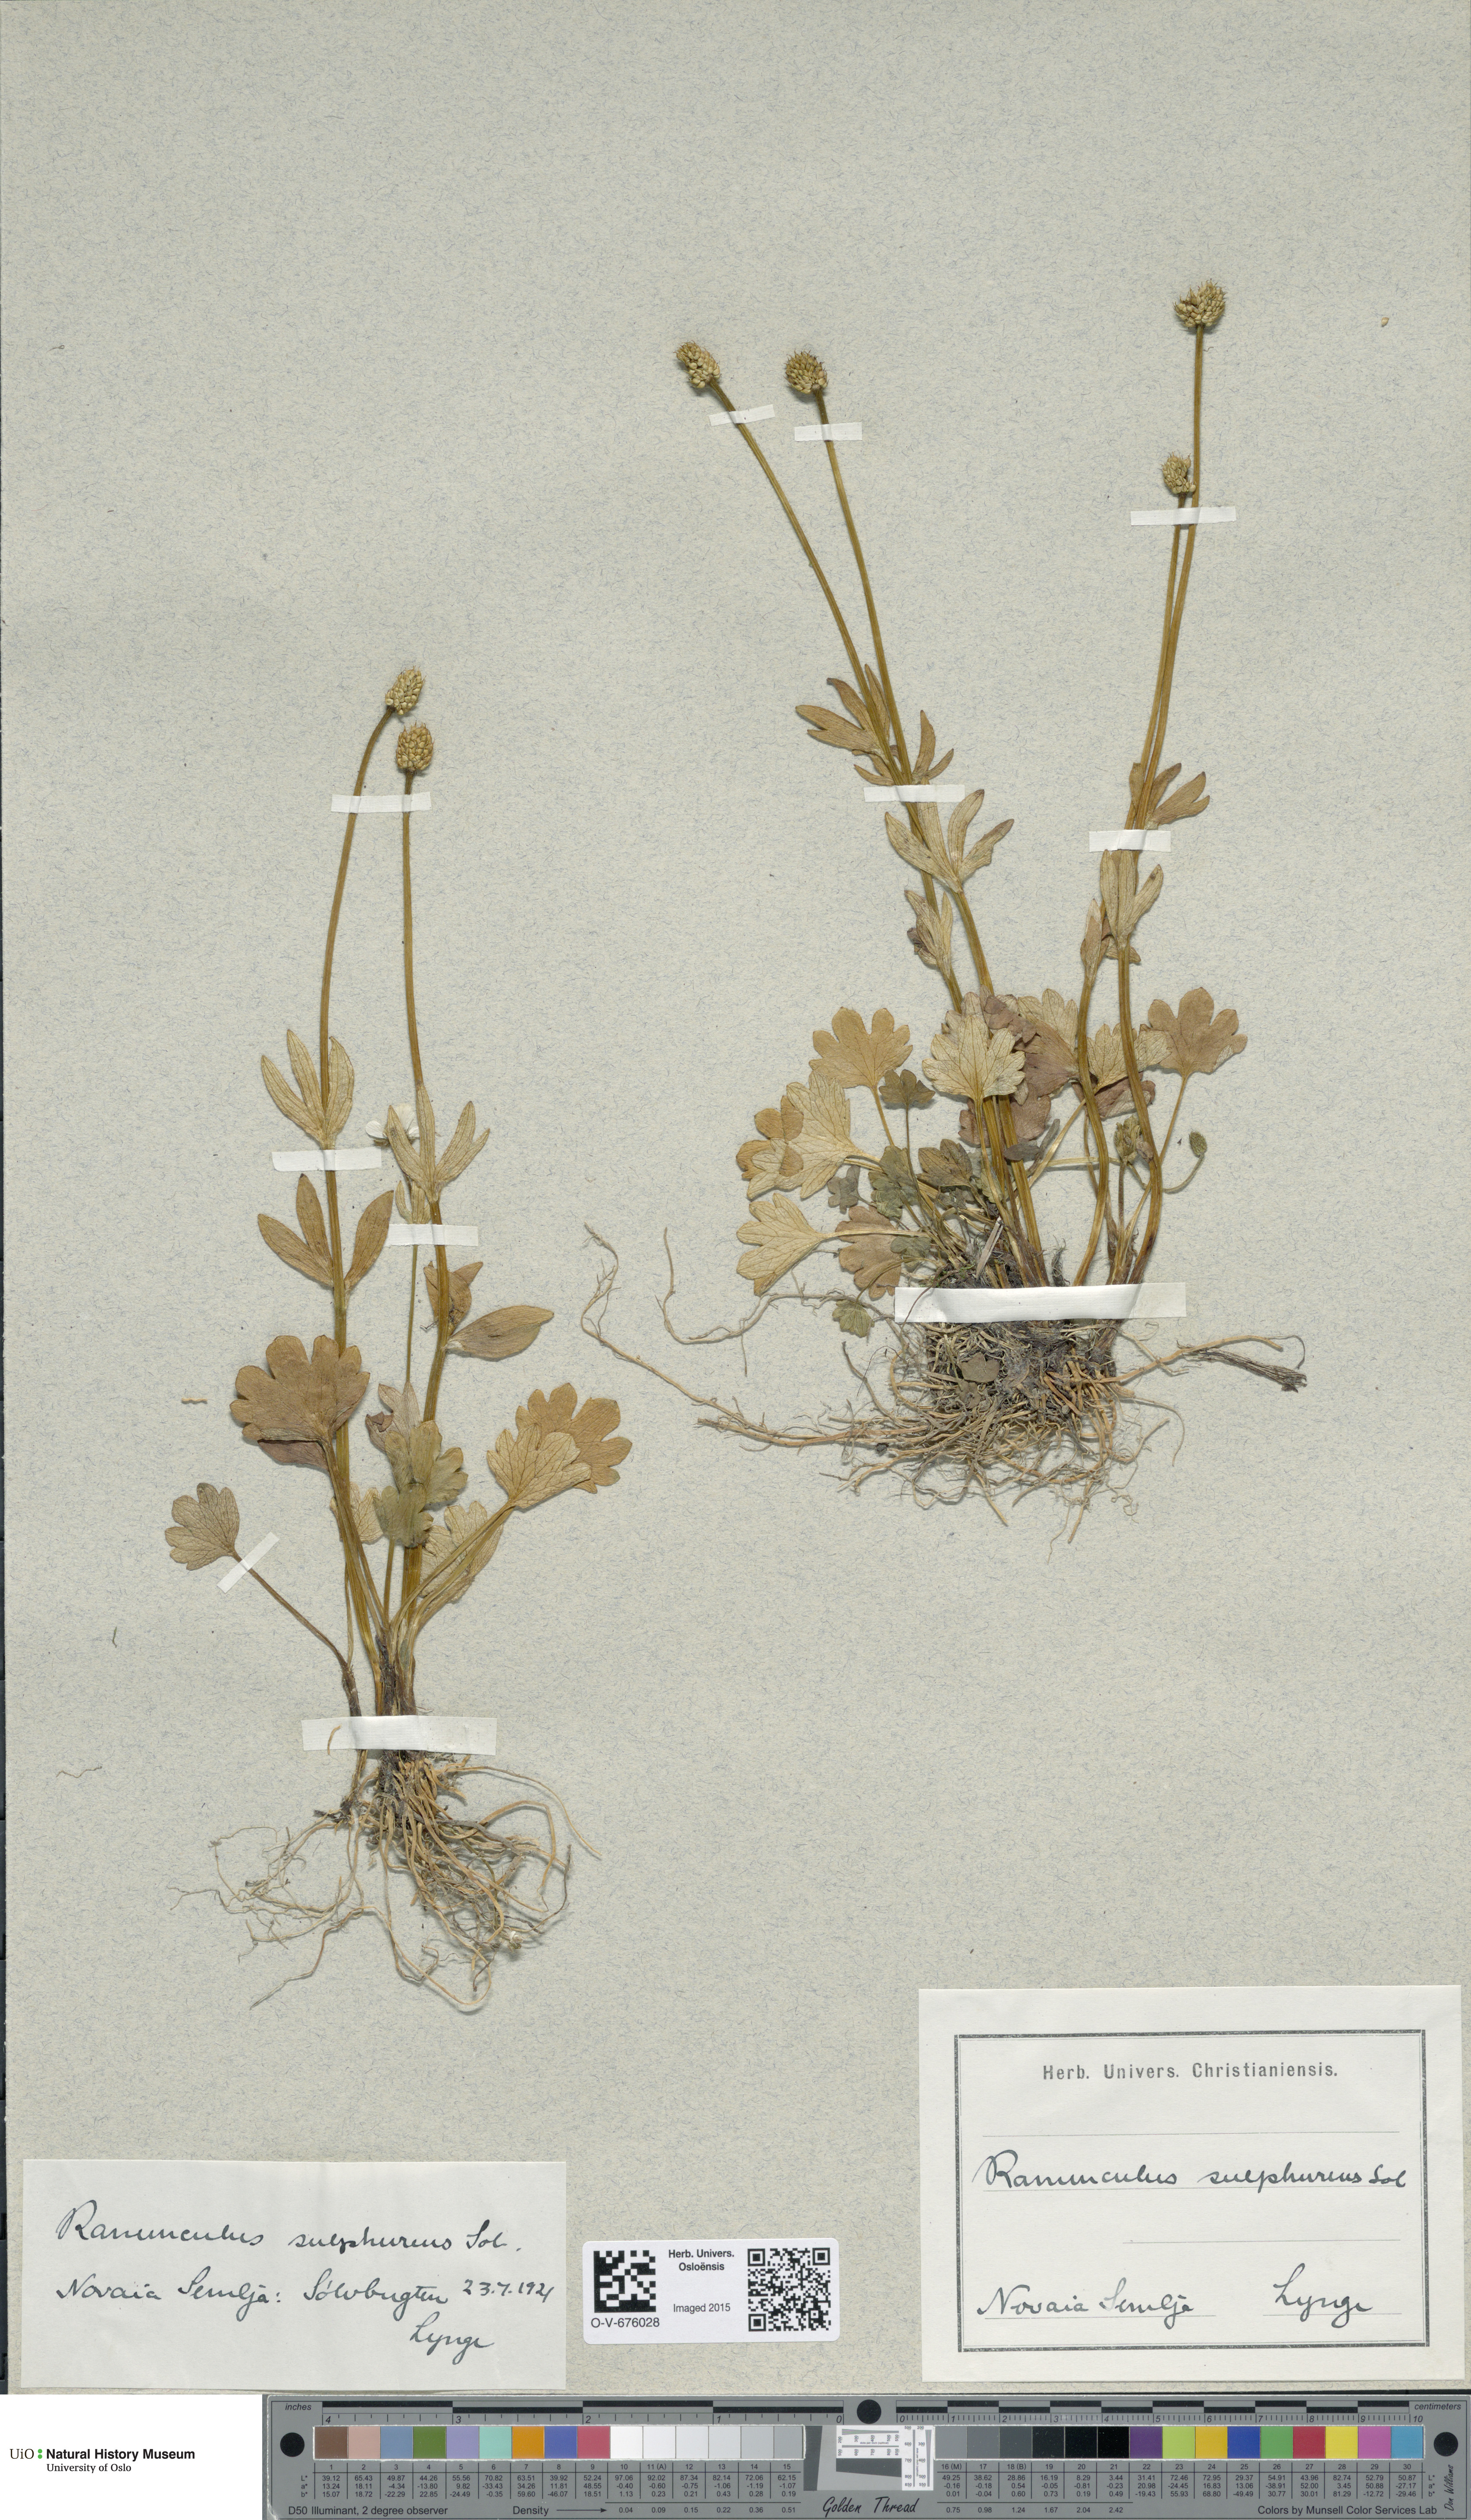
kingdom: Plantae
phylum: Tracheophyta
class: Magnoliopsida
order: Ranunculales
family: Ranunculaceae
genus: Ranunculus
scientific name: Ranunculus sulphureus
